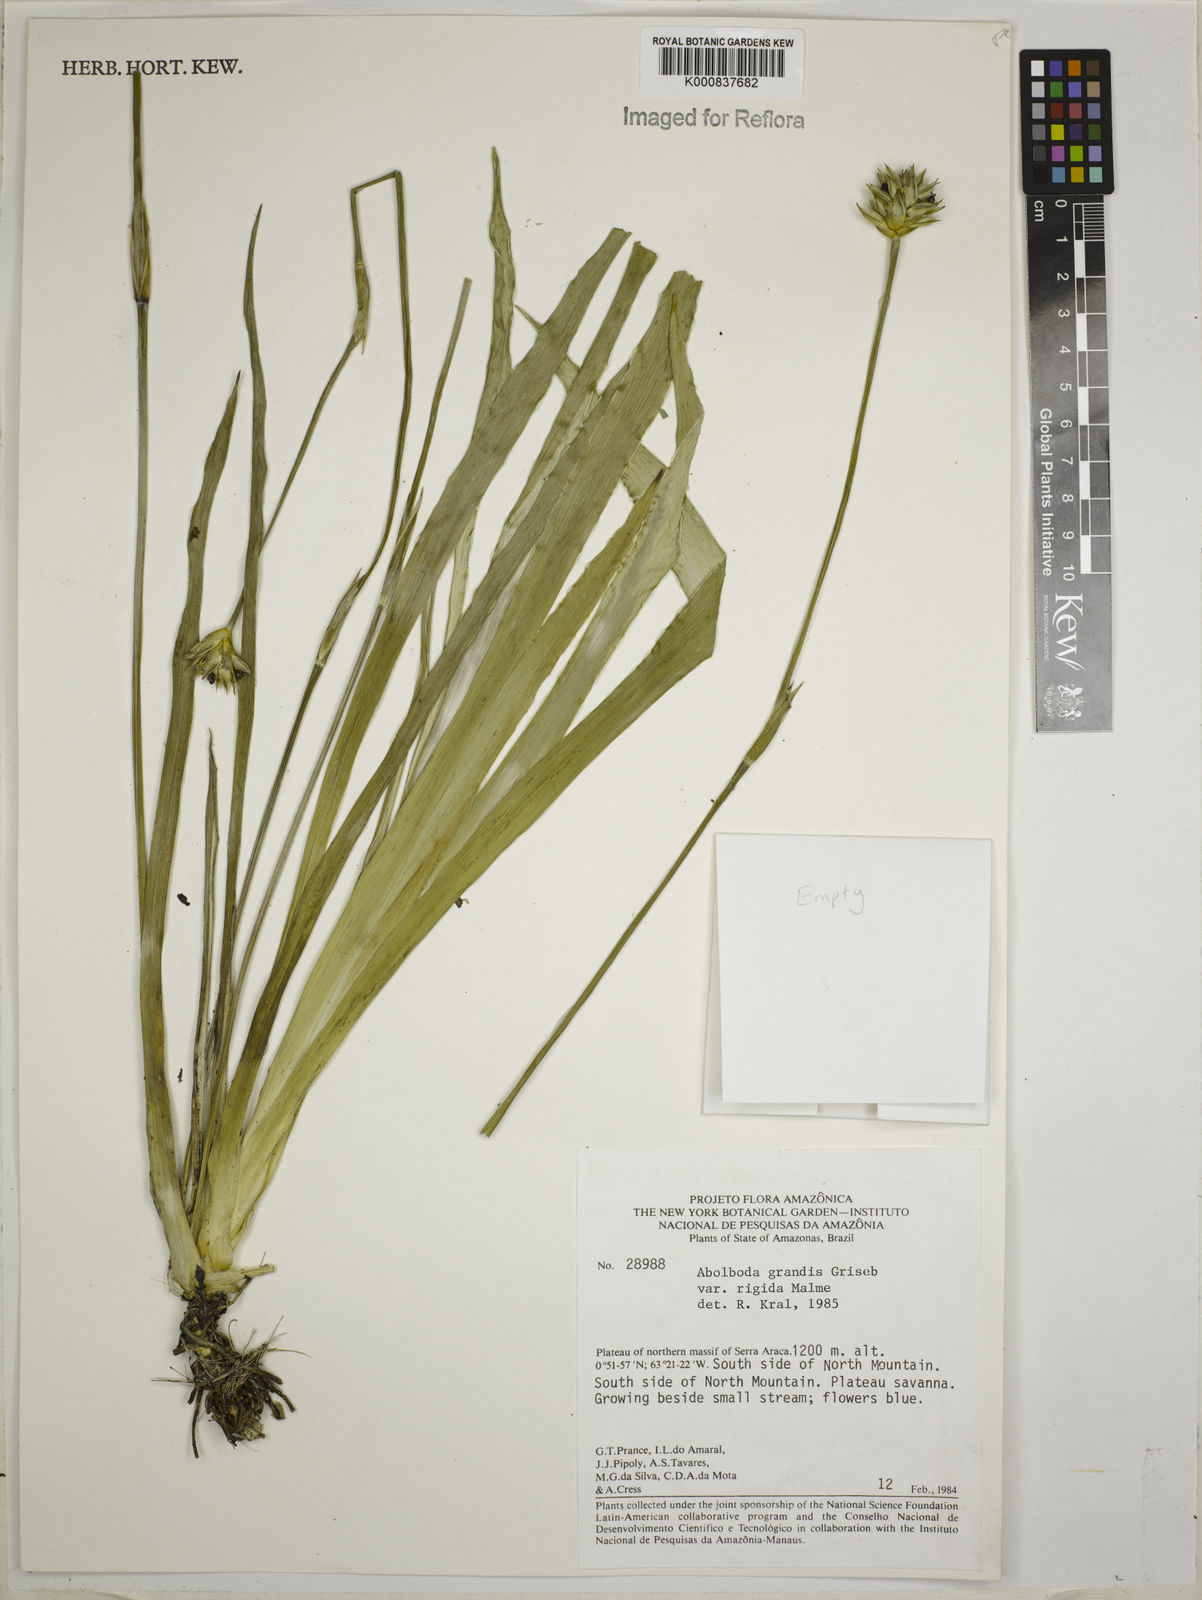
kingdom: Plantae
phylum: Tracheophyta
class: Liliopsida
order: Poales
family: Xyridaceae
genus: Abolboda
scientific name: Abolboda grandis
